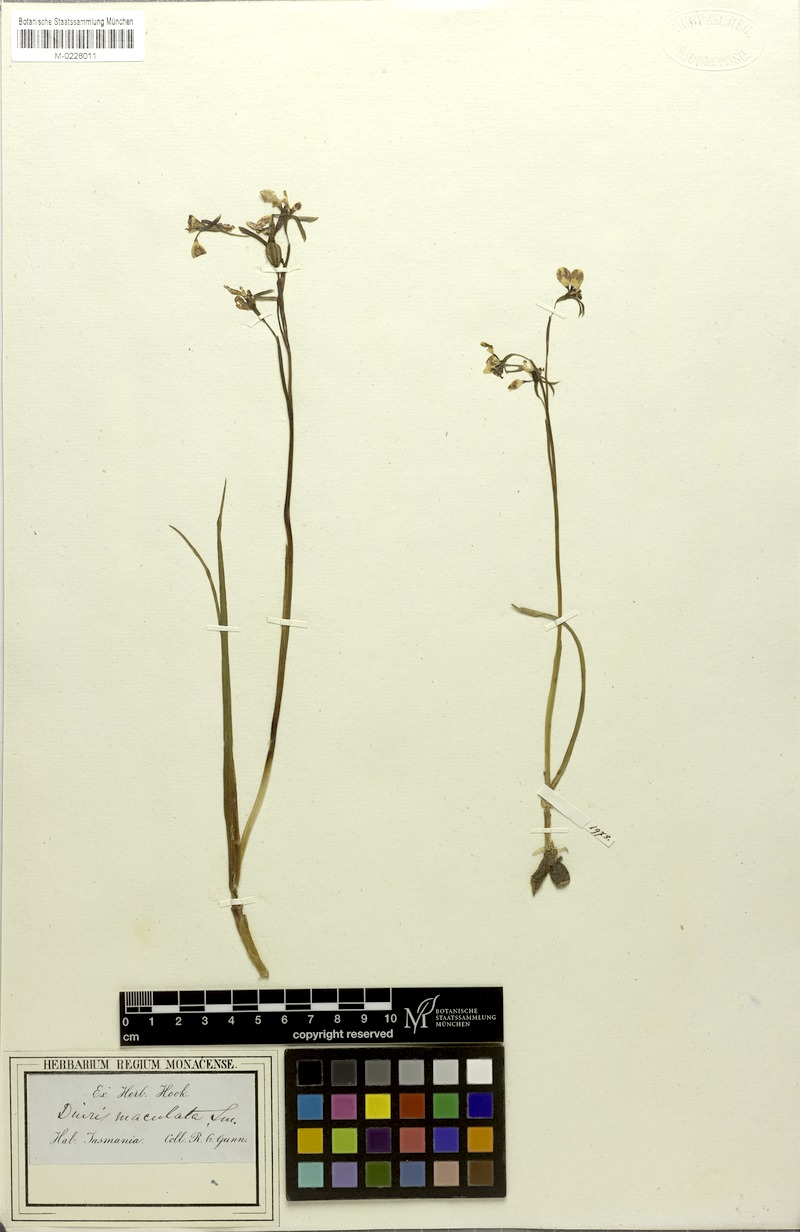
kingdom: Plantae
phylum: Tracheophyta
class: Liliopsida
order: Asparagales
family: Orchidaceae
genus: Diuris
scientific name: Diuris maculata
